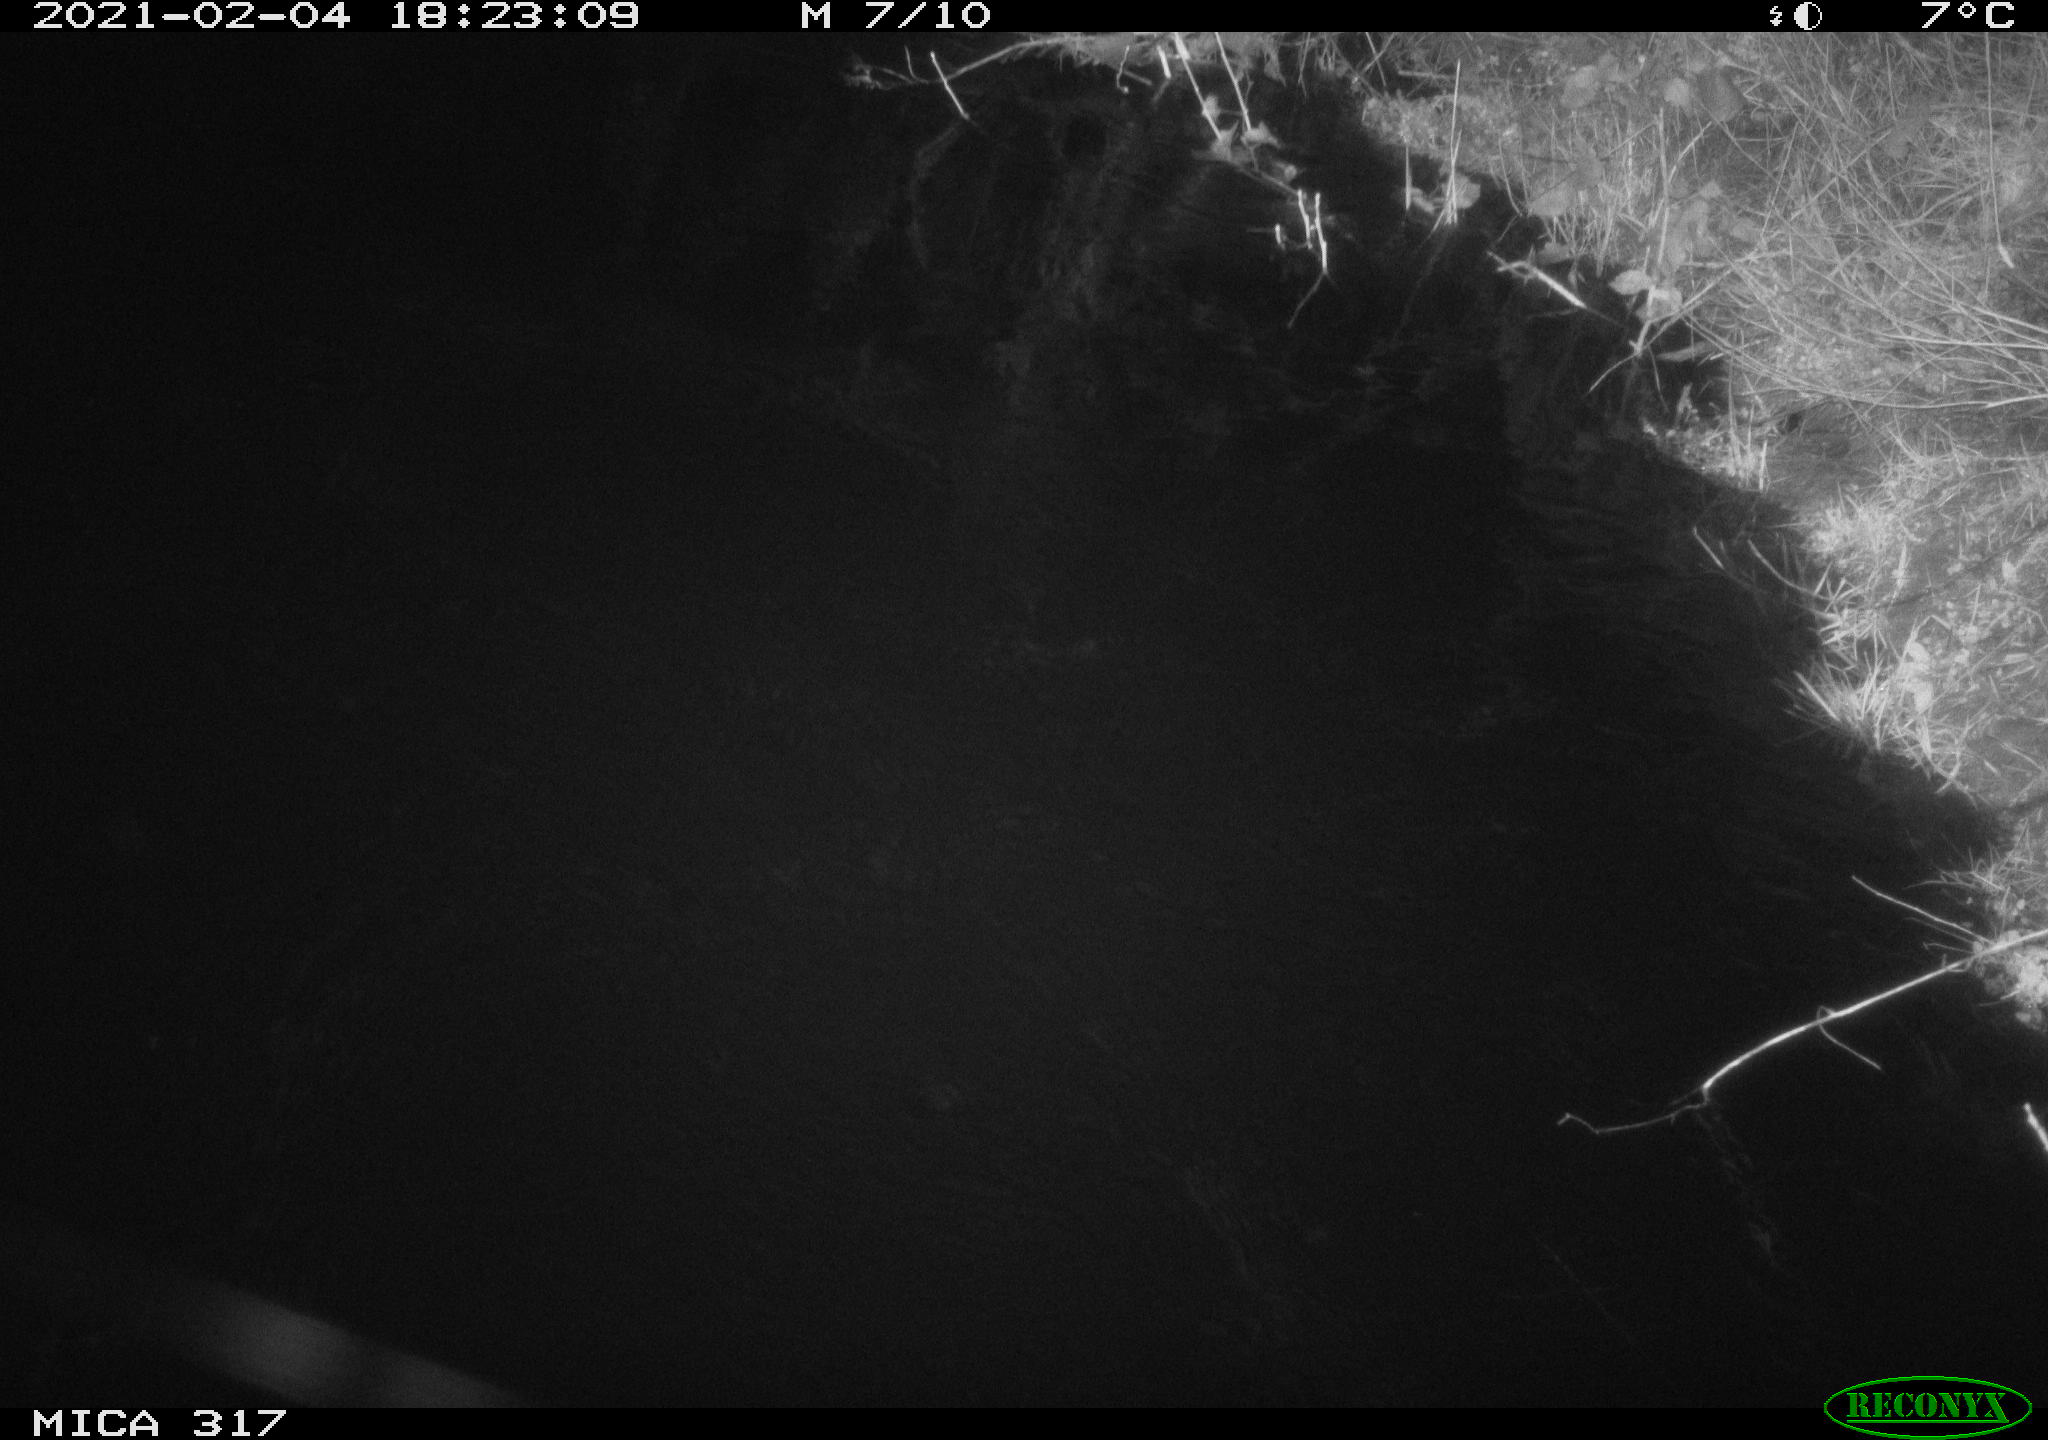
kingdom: Animalia
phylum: Chordata
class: Aves
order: Gruiformes
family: Rallidae
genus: Gallinula
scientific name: Gallinula chloropus
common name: Common moorhen
